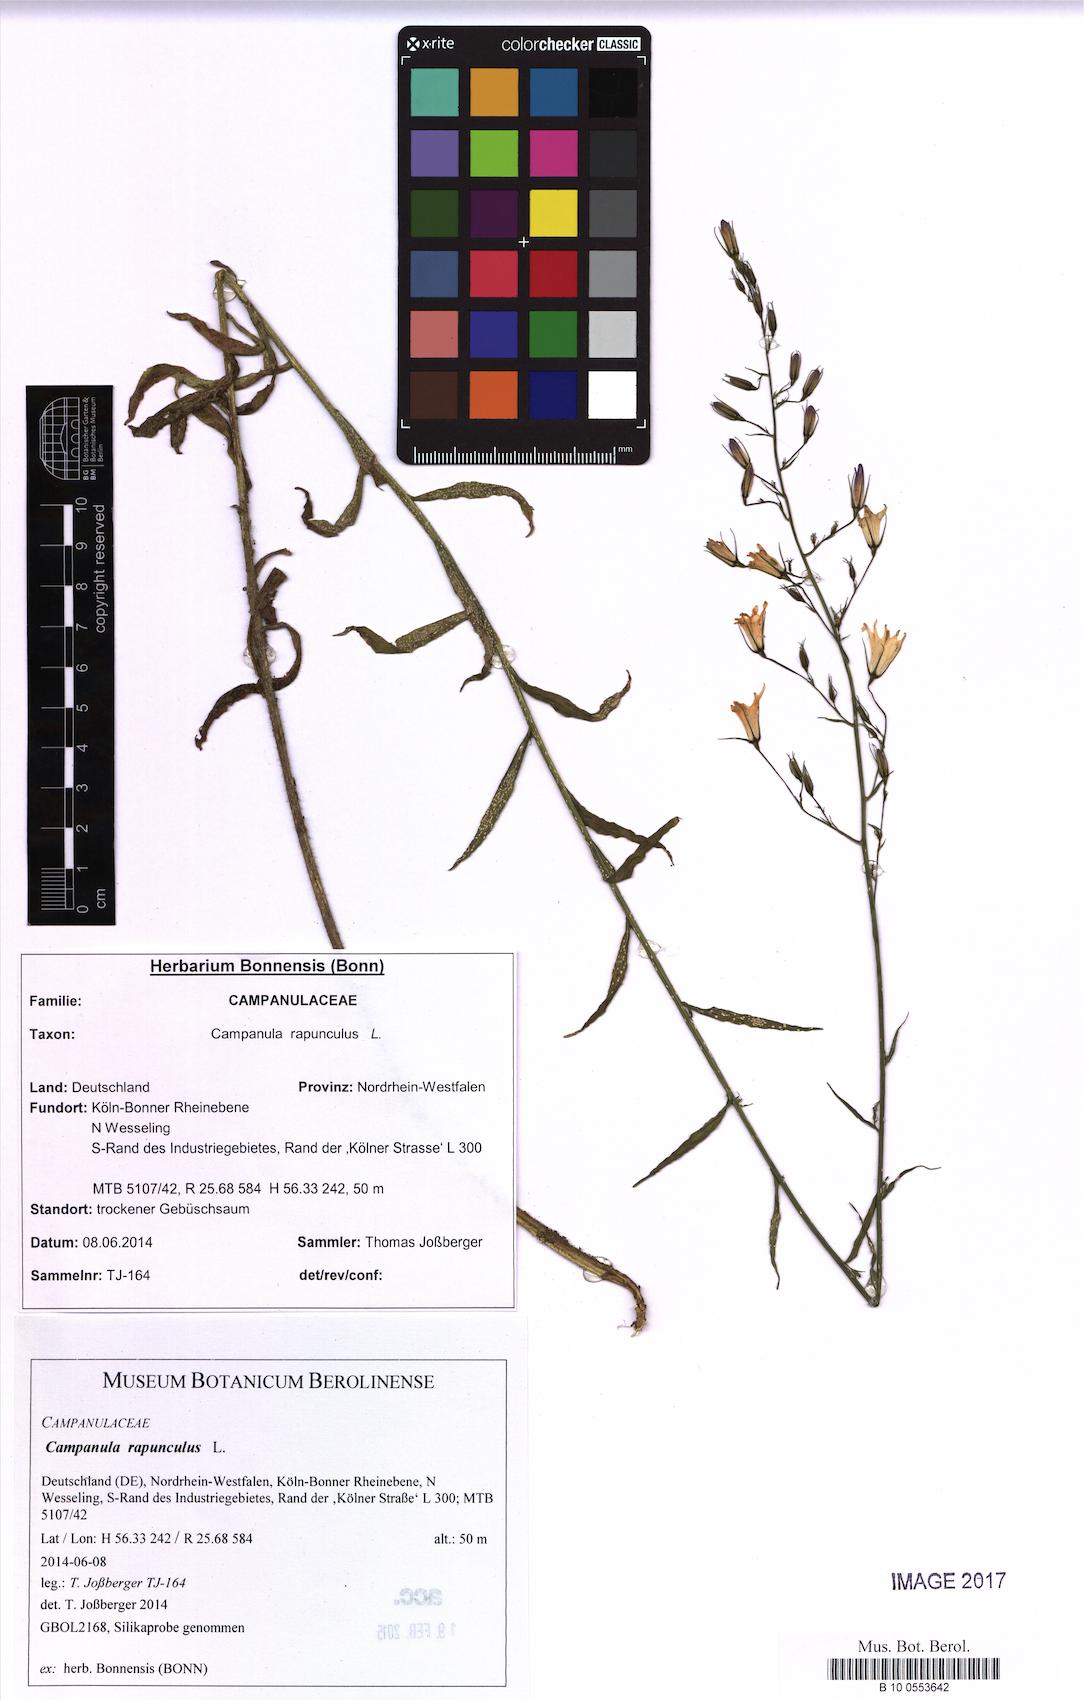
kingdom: Plantae
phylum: Tracheophyta
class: Magnoliopsida
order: Asterales
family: Campanulaceae
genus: Campanula
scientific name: Campanula rapunculus
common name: Rampion bellflower
